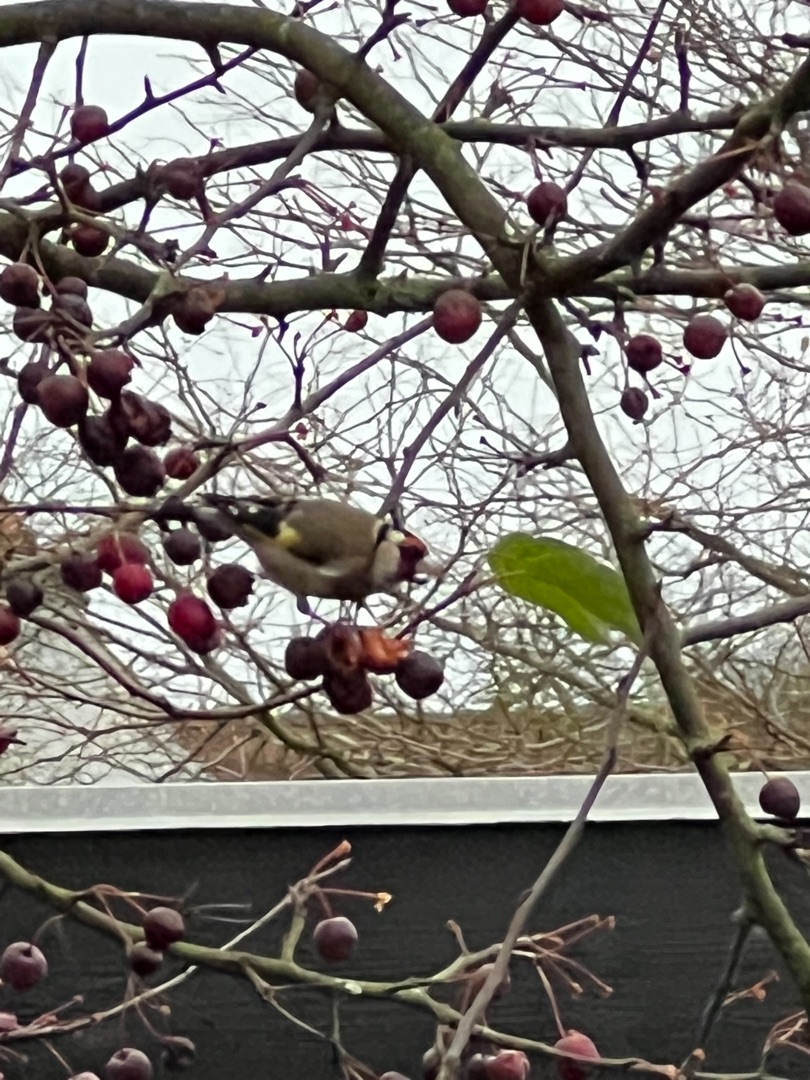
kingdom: Animalia
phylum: Chordata
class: Aves
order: Passeriformes
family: Fringillidae
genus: Carduelis
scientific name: Carduelis carduelis
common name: Stillits
